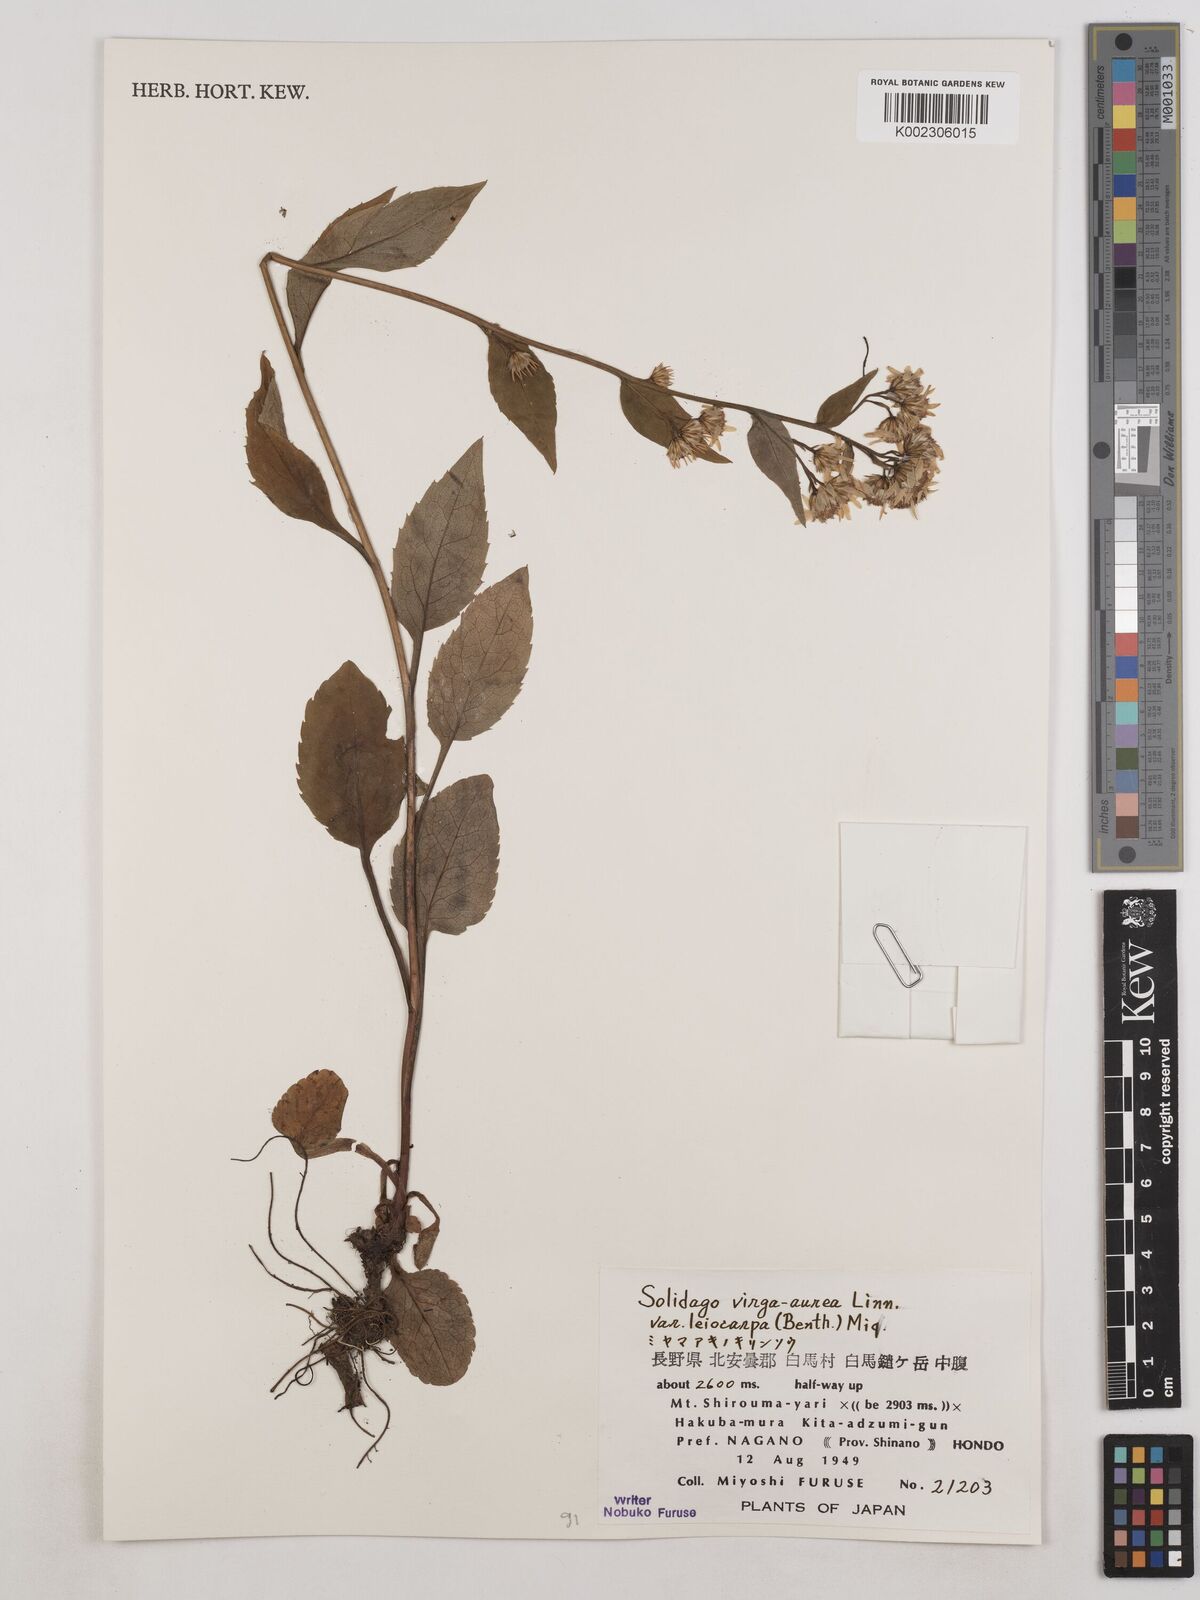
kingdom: Plantae
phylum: Tracheophyta
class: Magnoliopsida
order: Asterales
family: Asteraceae
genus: Solidago
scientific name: Solidago decurrens
